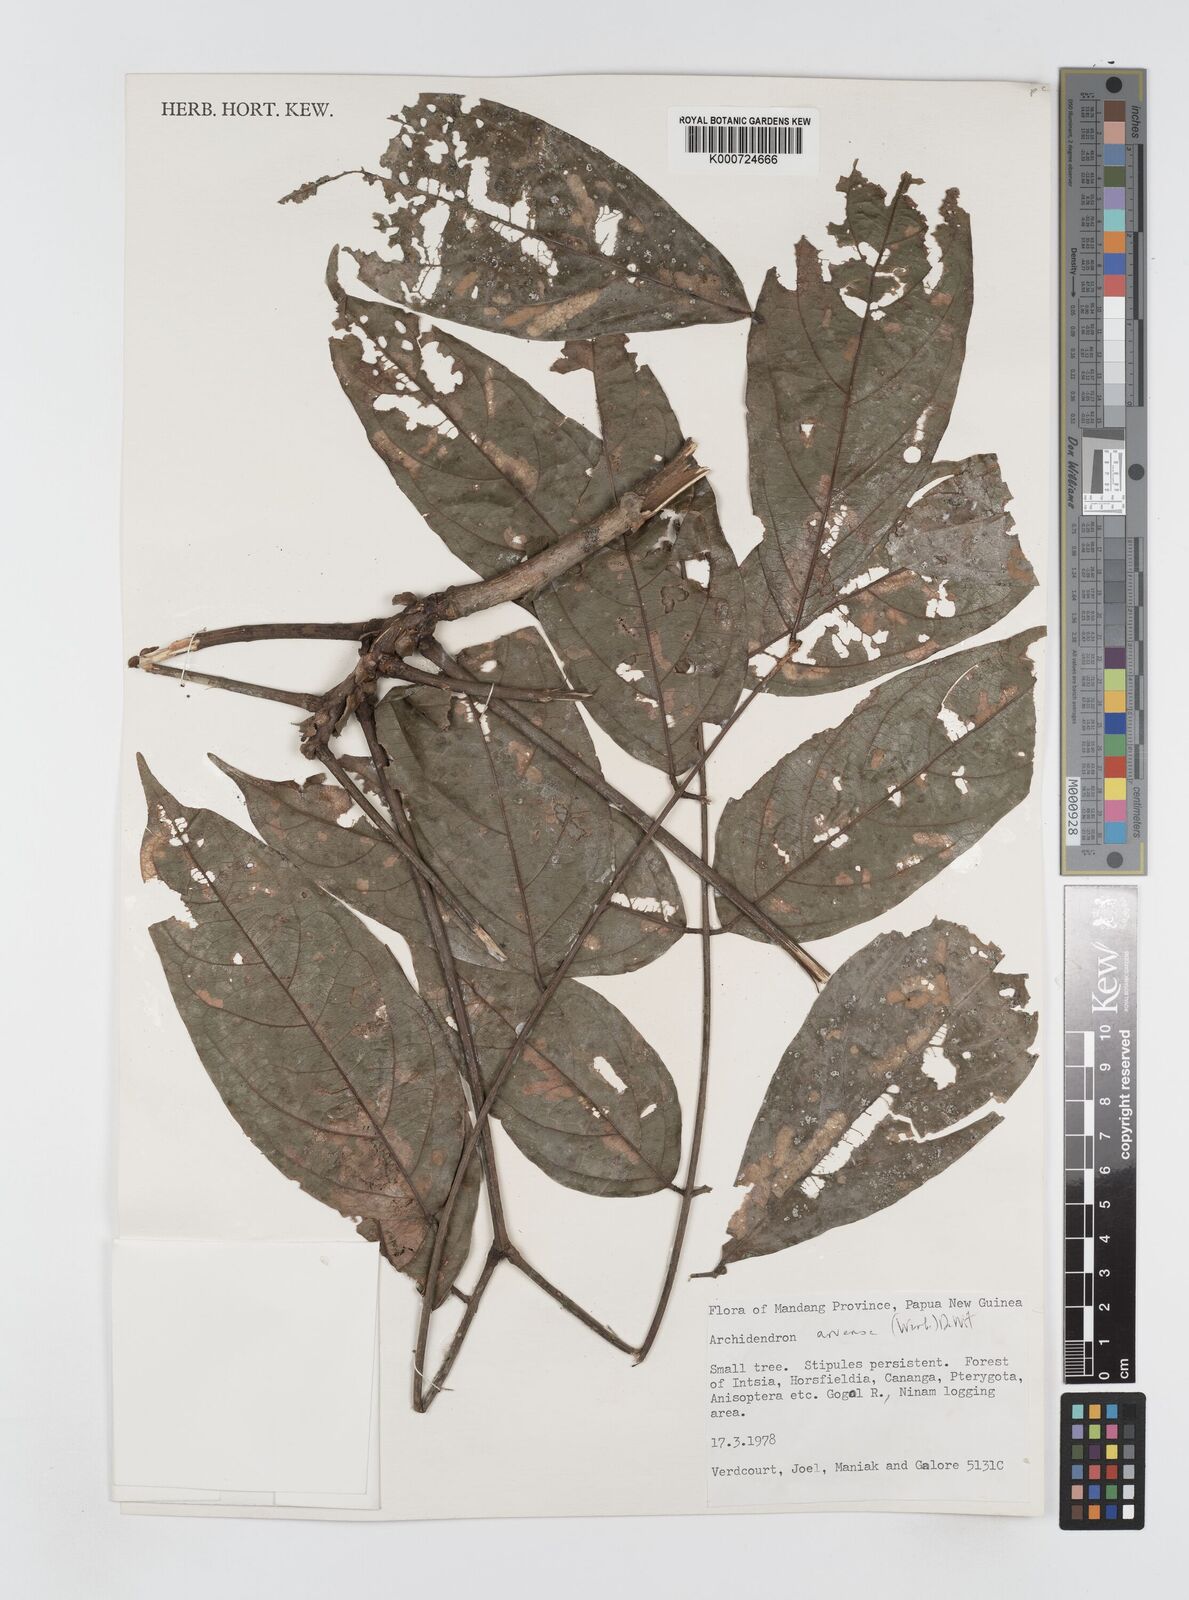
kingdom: Plantae
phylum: Tracheophyta
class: Magnoliopsida
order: Fabales
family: Fabaceae
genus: Archidendron
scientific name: Archidendron aruense
